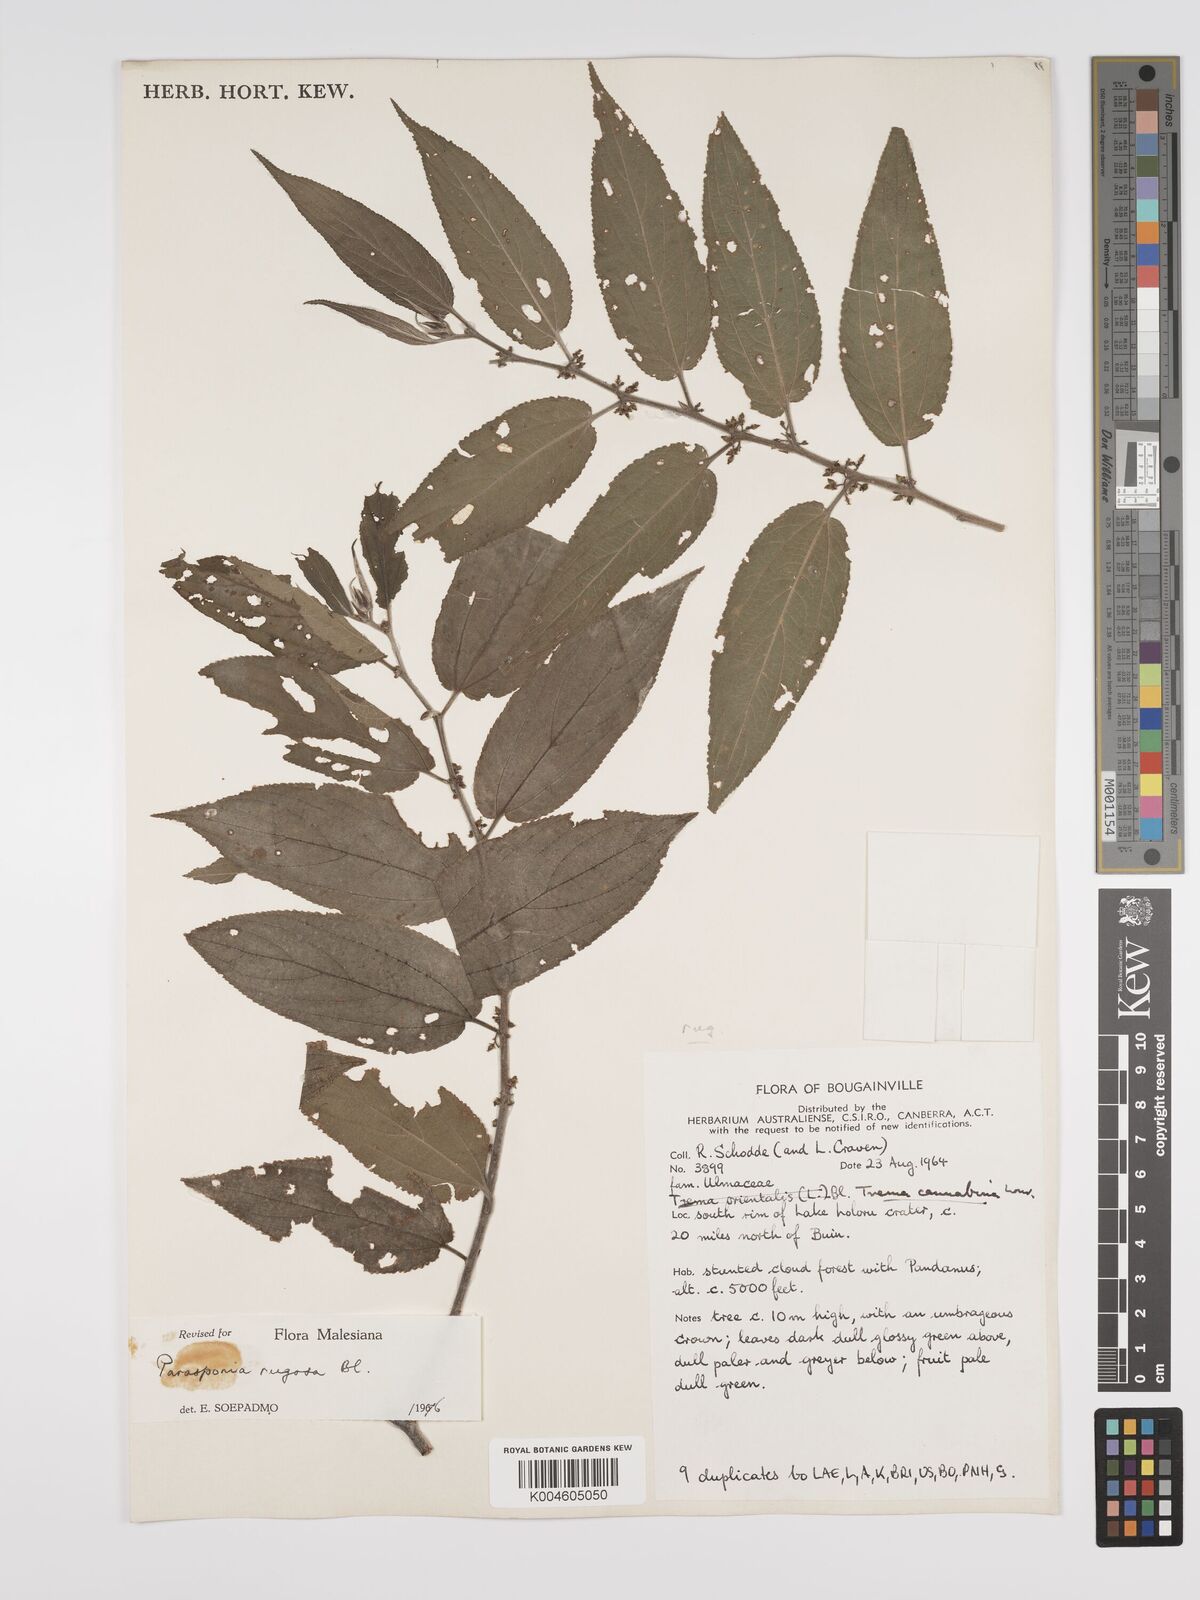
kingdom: Plantae
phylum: Tracheophyta
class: Magnoliopsida
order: Rosales
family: Cannabaceae
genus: Trema
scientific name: Trema eurhynchum
